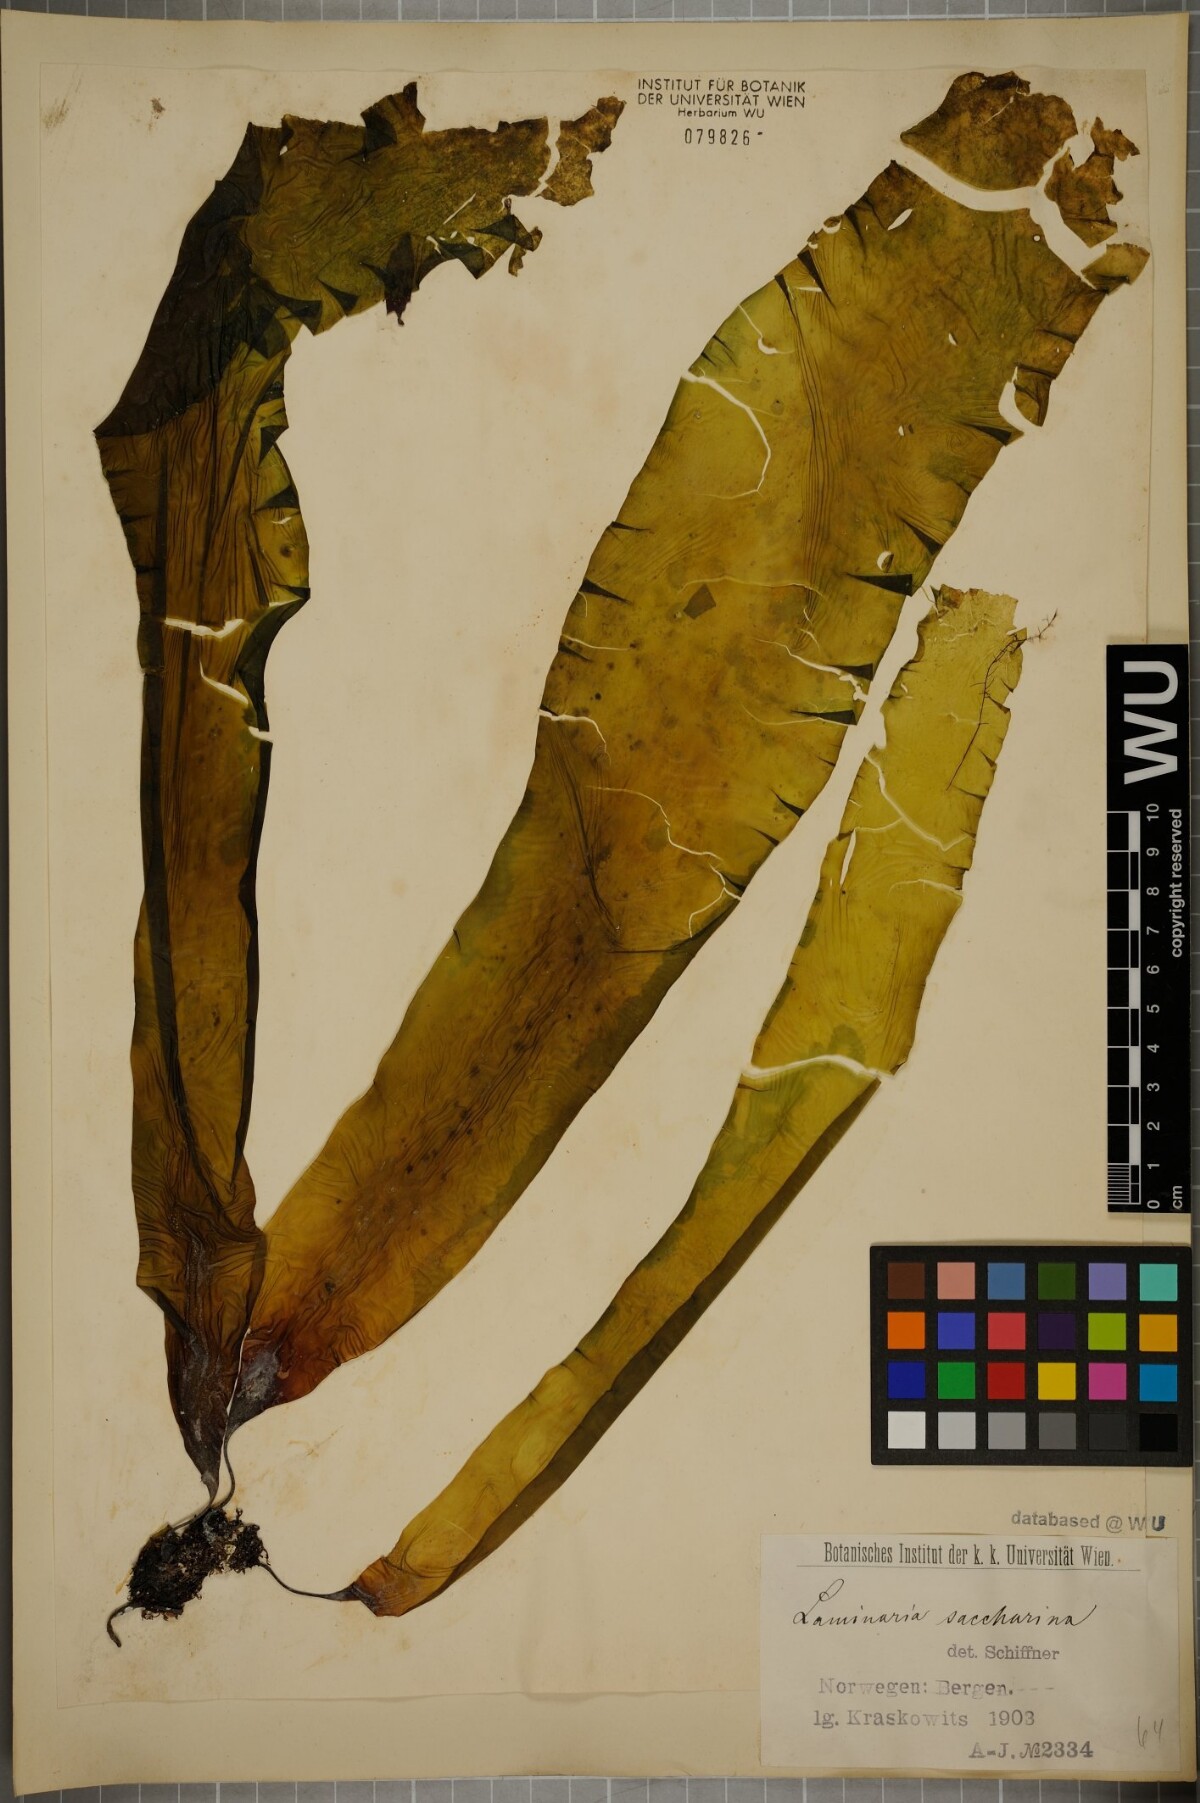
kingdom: Chromista
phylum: Ochrophyta
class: Phaeophyceae
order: Laminariales
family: Laminariaceae
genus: Saccharina
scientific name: Saccharina latissima
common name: Poor man's weather glass
